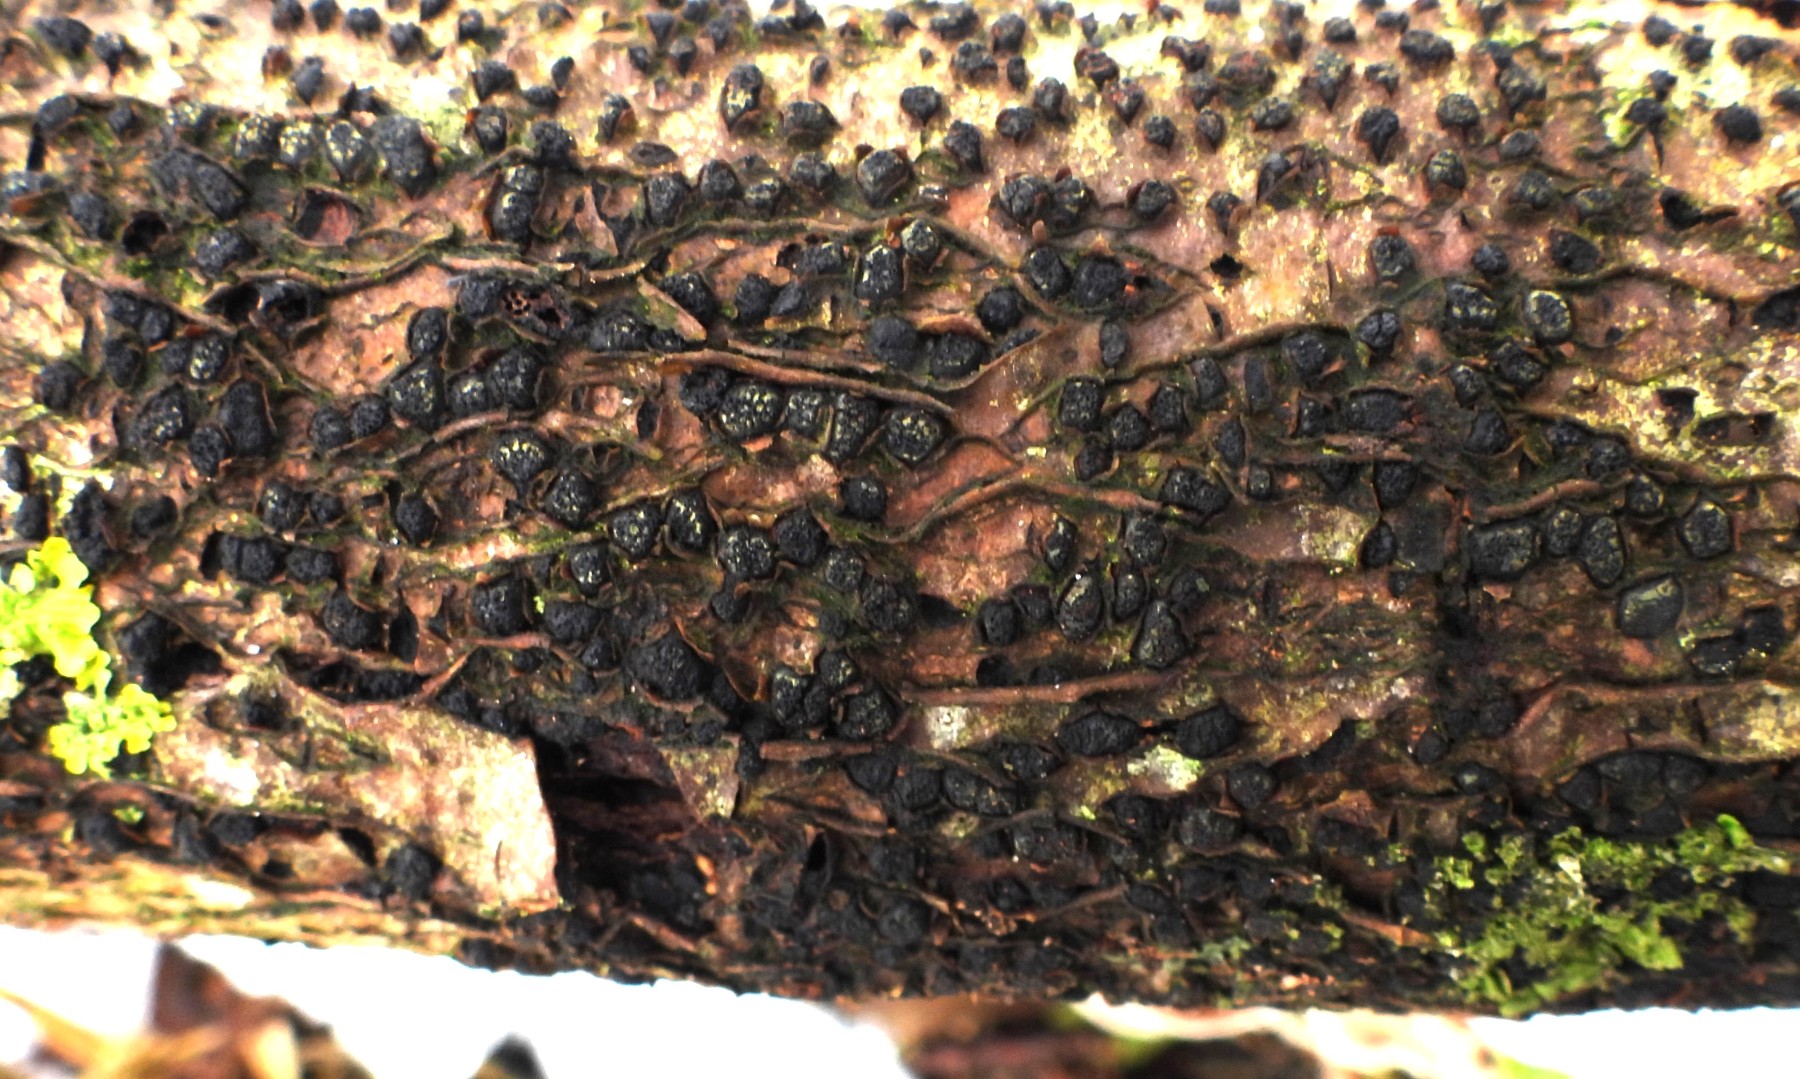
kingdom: Fungi
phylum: Ascomycota
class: Sordariomycetes
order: Xylariales
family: Diatrypaceae
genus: Diatrypella
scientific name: Diatrypella quercina
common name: ege-kulskorpe
